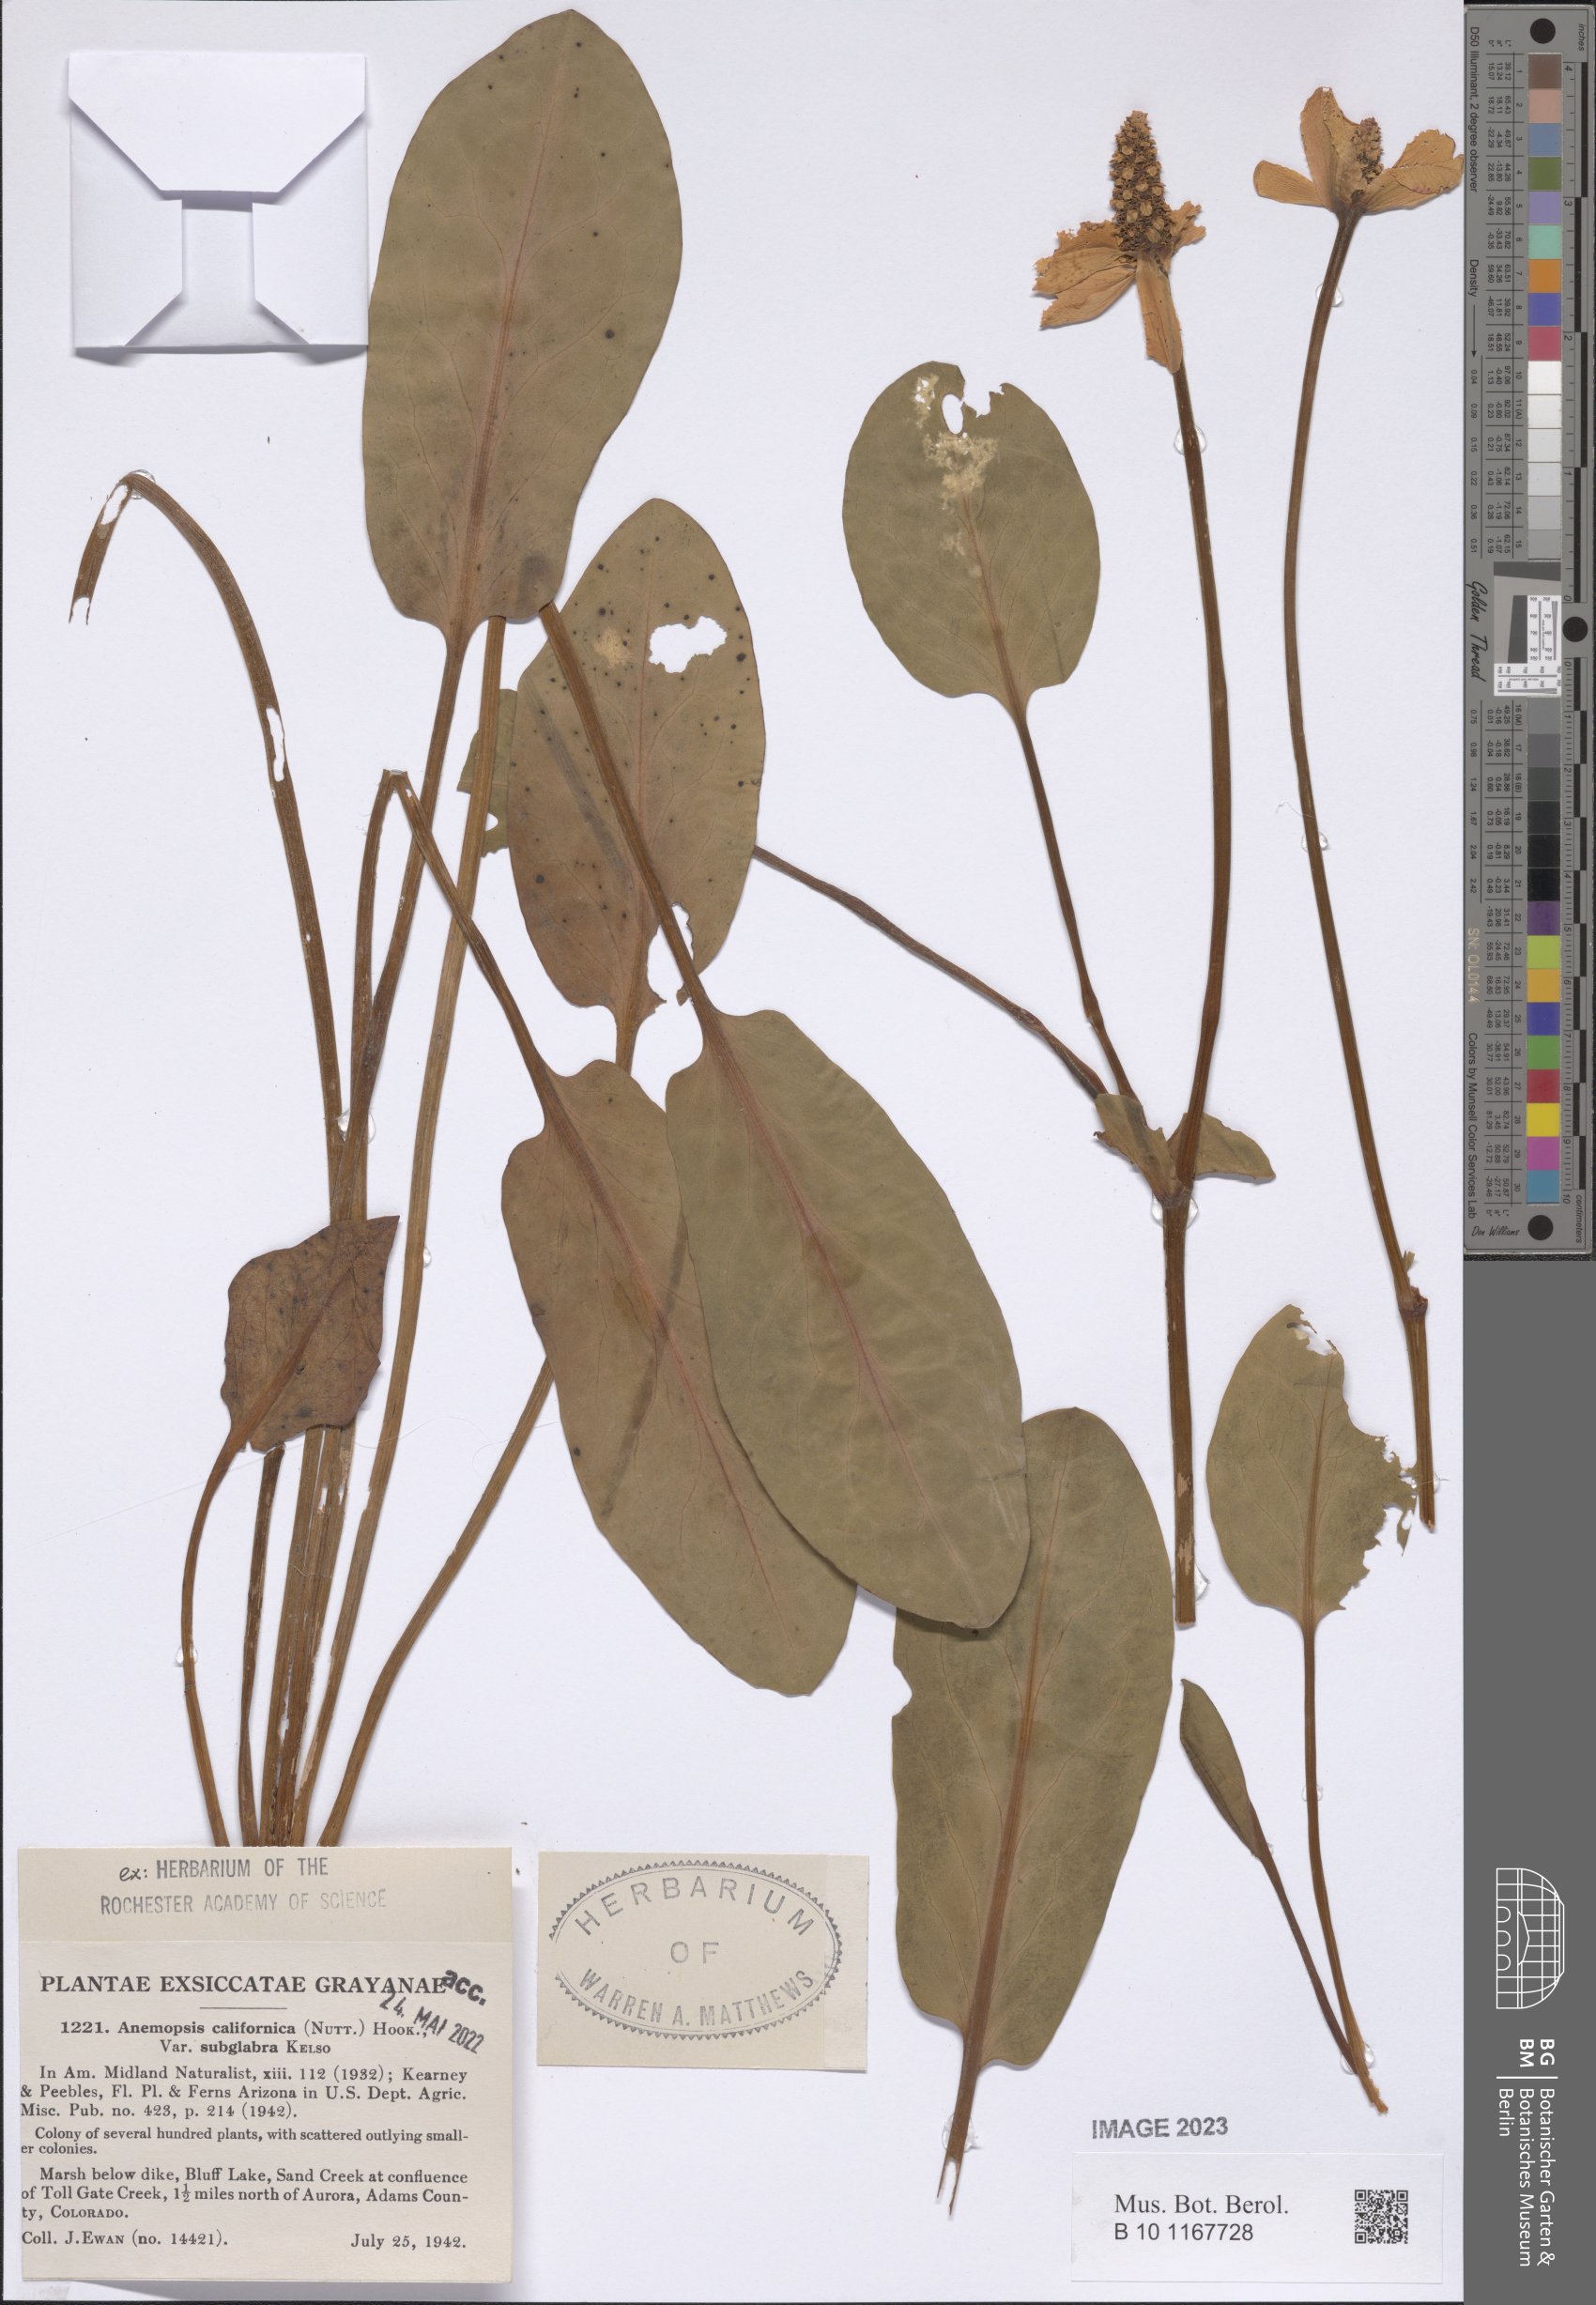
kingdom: Plantae
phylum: Tracheophyta
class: Magnoliopsida
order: Piperales
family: Saururaceae
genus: Anemopsis
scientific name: Anemopsis californica
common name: Apache-beads
